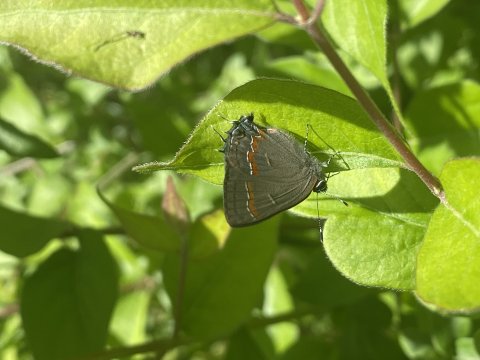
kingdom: Animalia
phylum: Arthropoda
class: Insecta
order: Lepidoptera
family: Lycaenidae
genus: Calycopis
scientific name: Calycopis cecrops
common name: Red-banded Hairstreak
